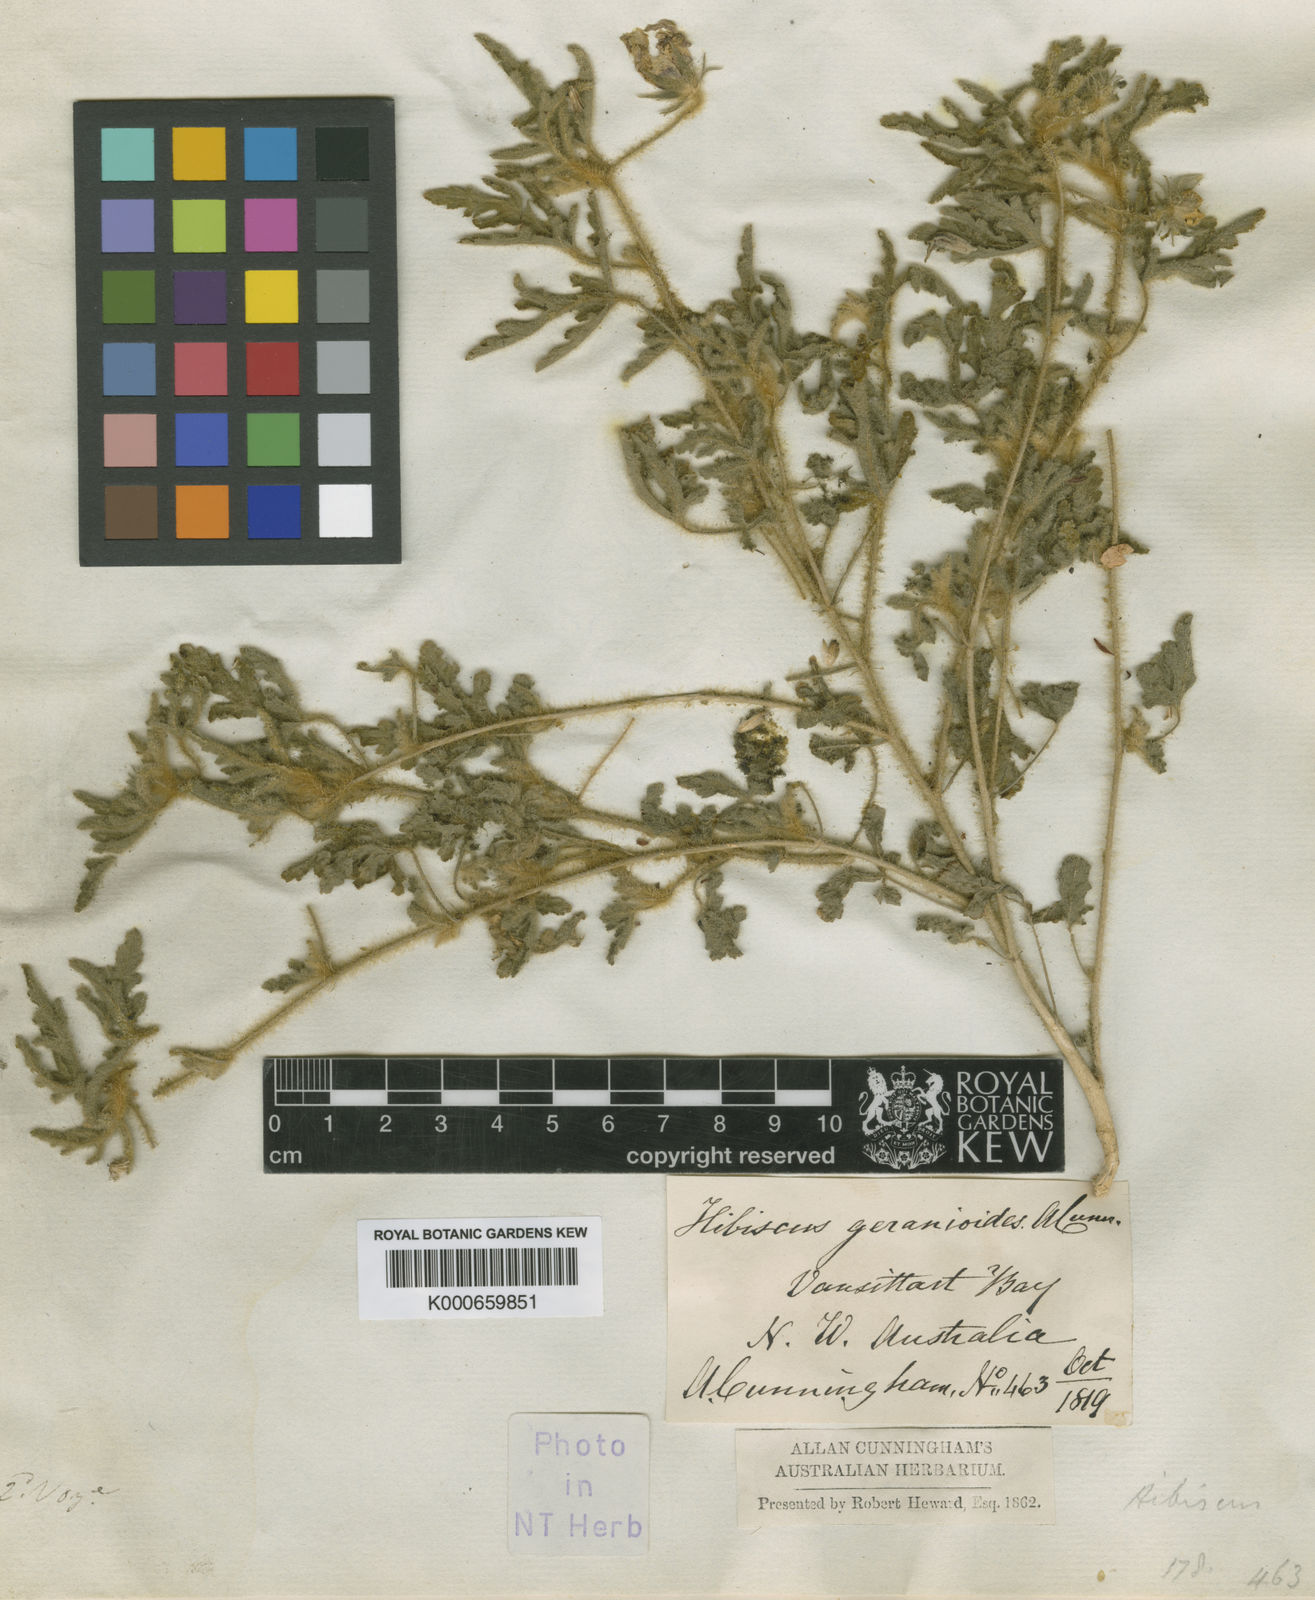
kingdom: Plantae
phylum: Tracheophyta
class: Magnoliopsida
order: Malvales
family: Malvaceae
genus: Hibiscus
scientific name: Hibiscus geranioides
